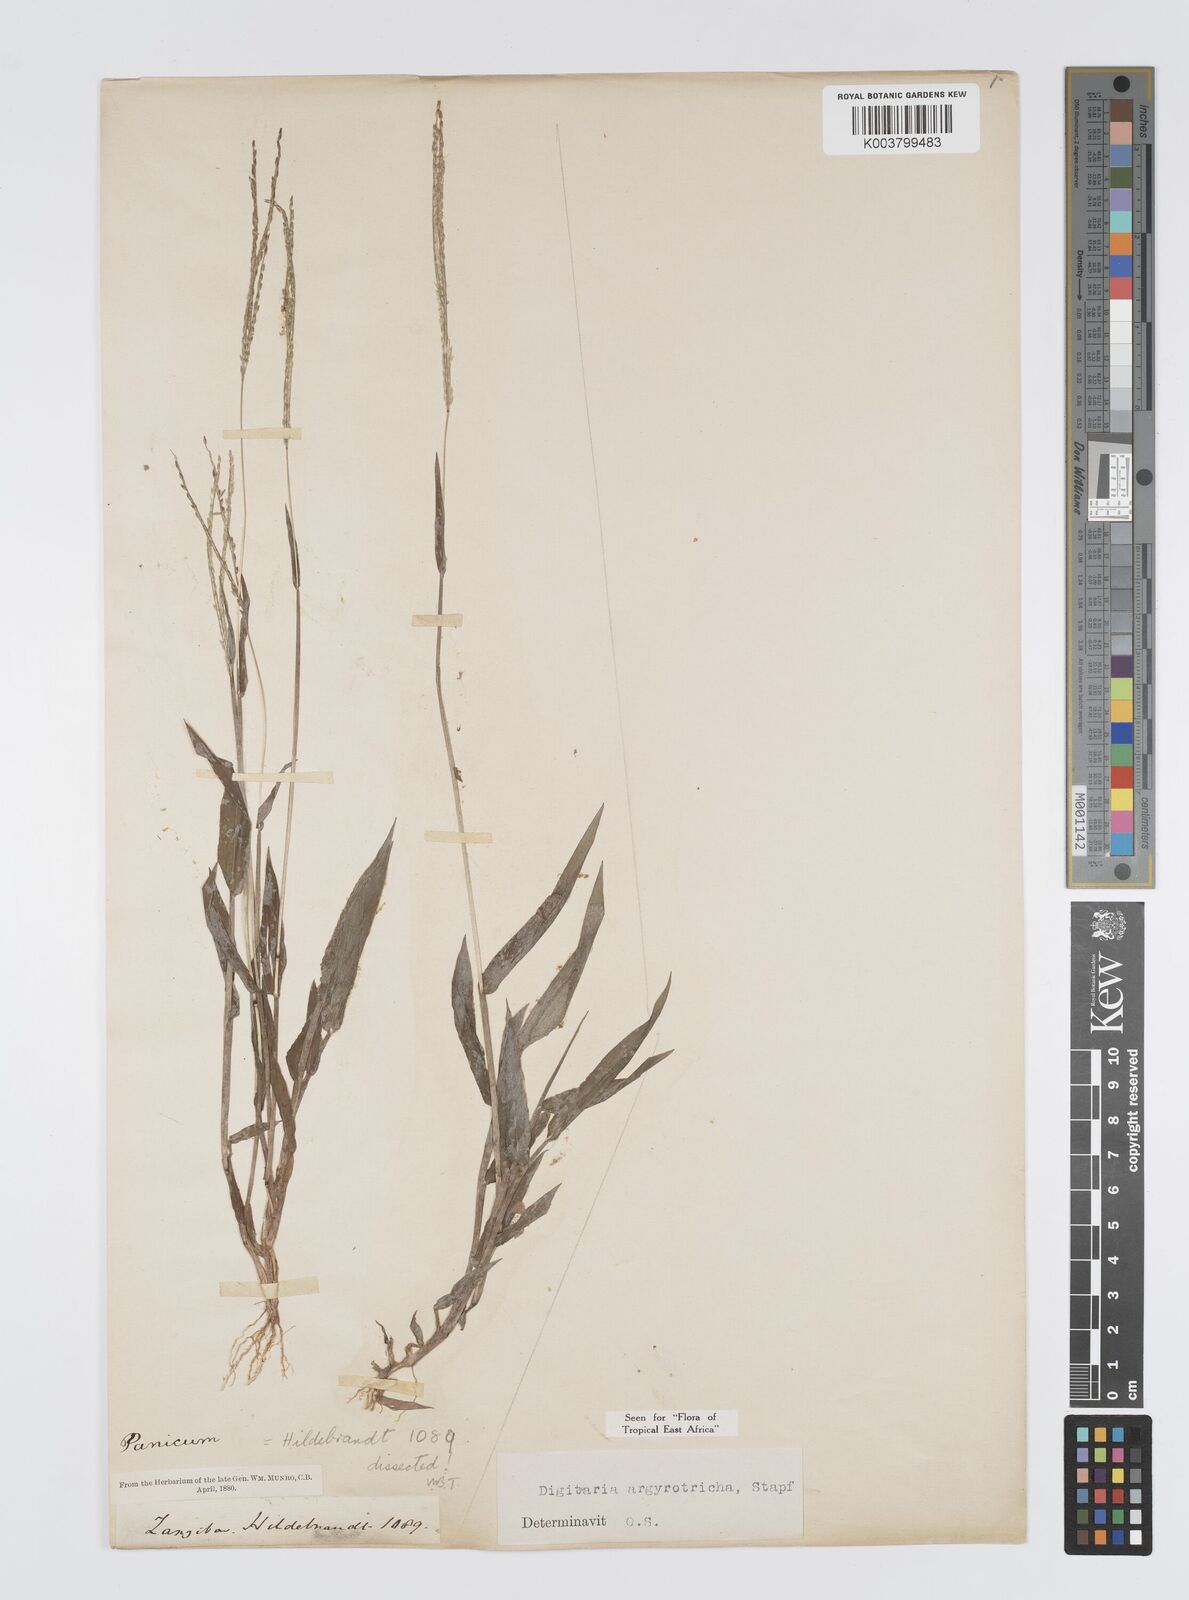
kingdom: Plantae
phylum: Tracheophyta
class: Liliopsida
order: Poales
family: Poaceae
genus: Digitaria
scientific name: Digitaria argyrotricha
